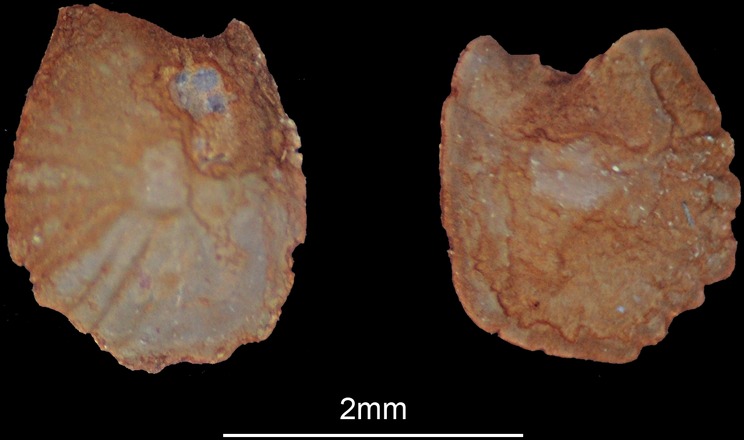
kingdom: Animalia
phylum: Chordata
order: Cypriniformes
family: Cyprinidae
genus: Luciobarbus
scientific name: Luciobarbus xanthopterus
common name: Yellowfin barbel
